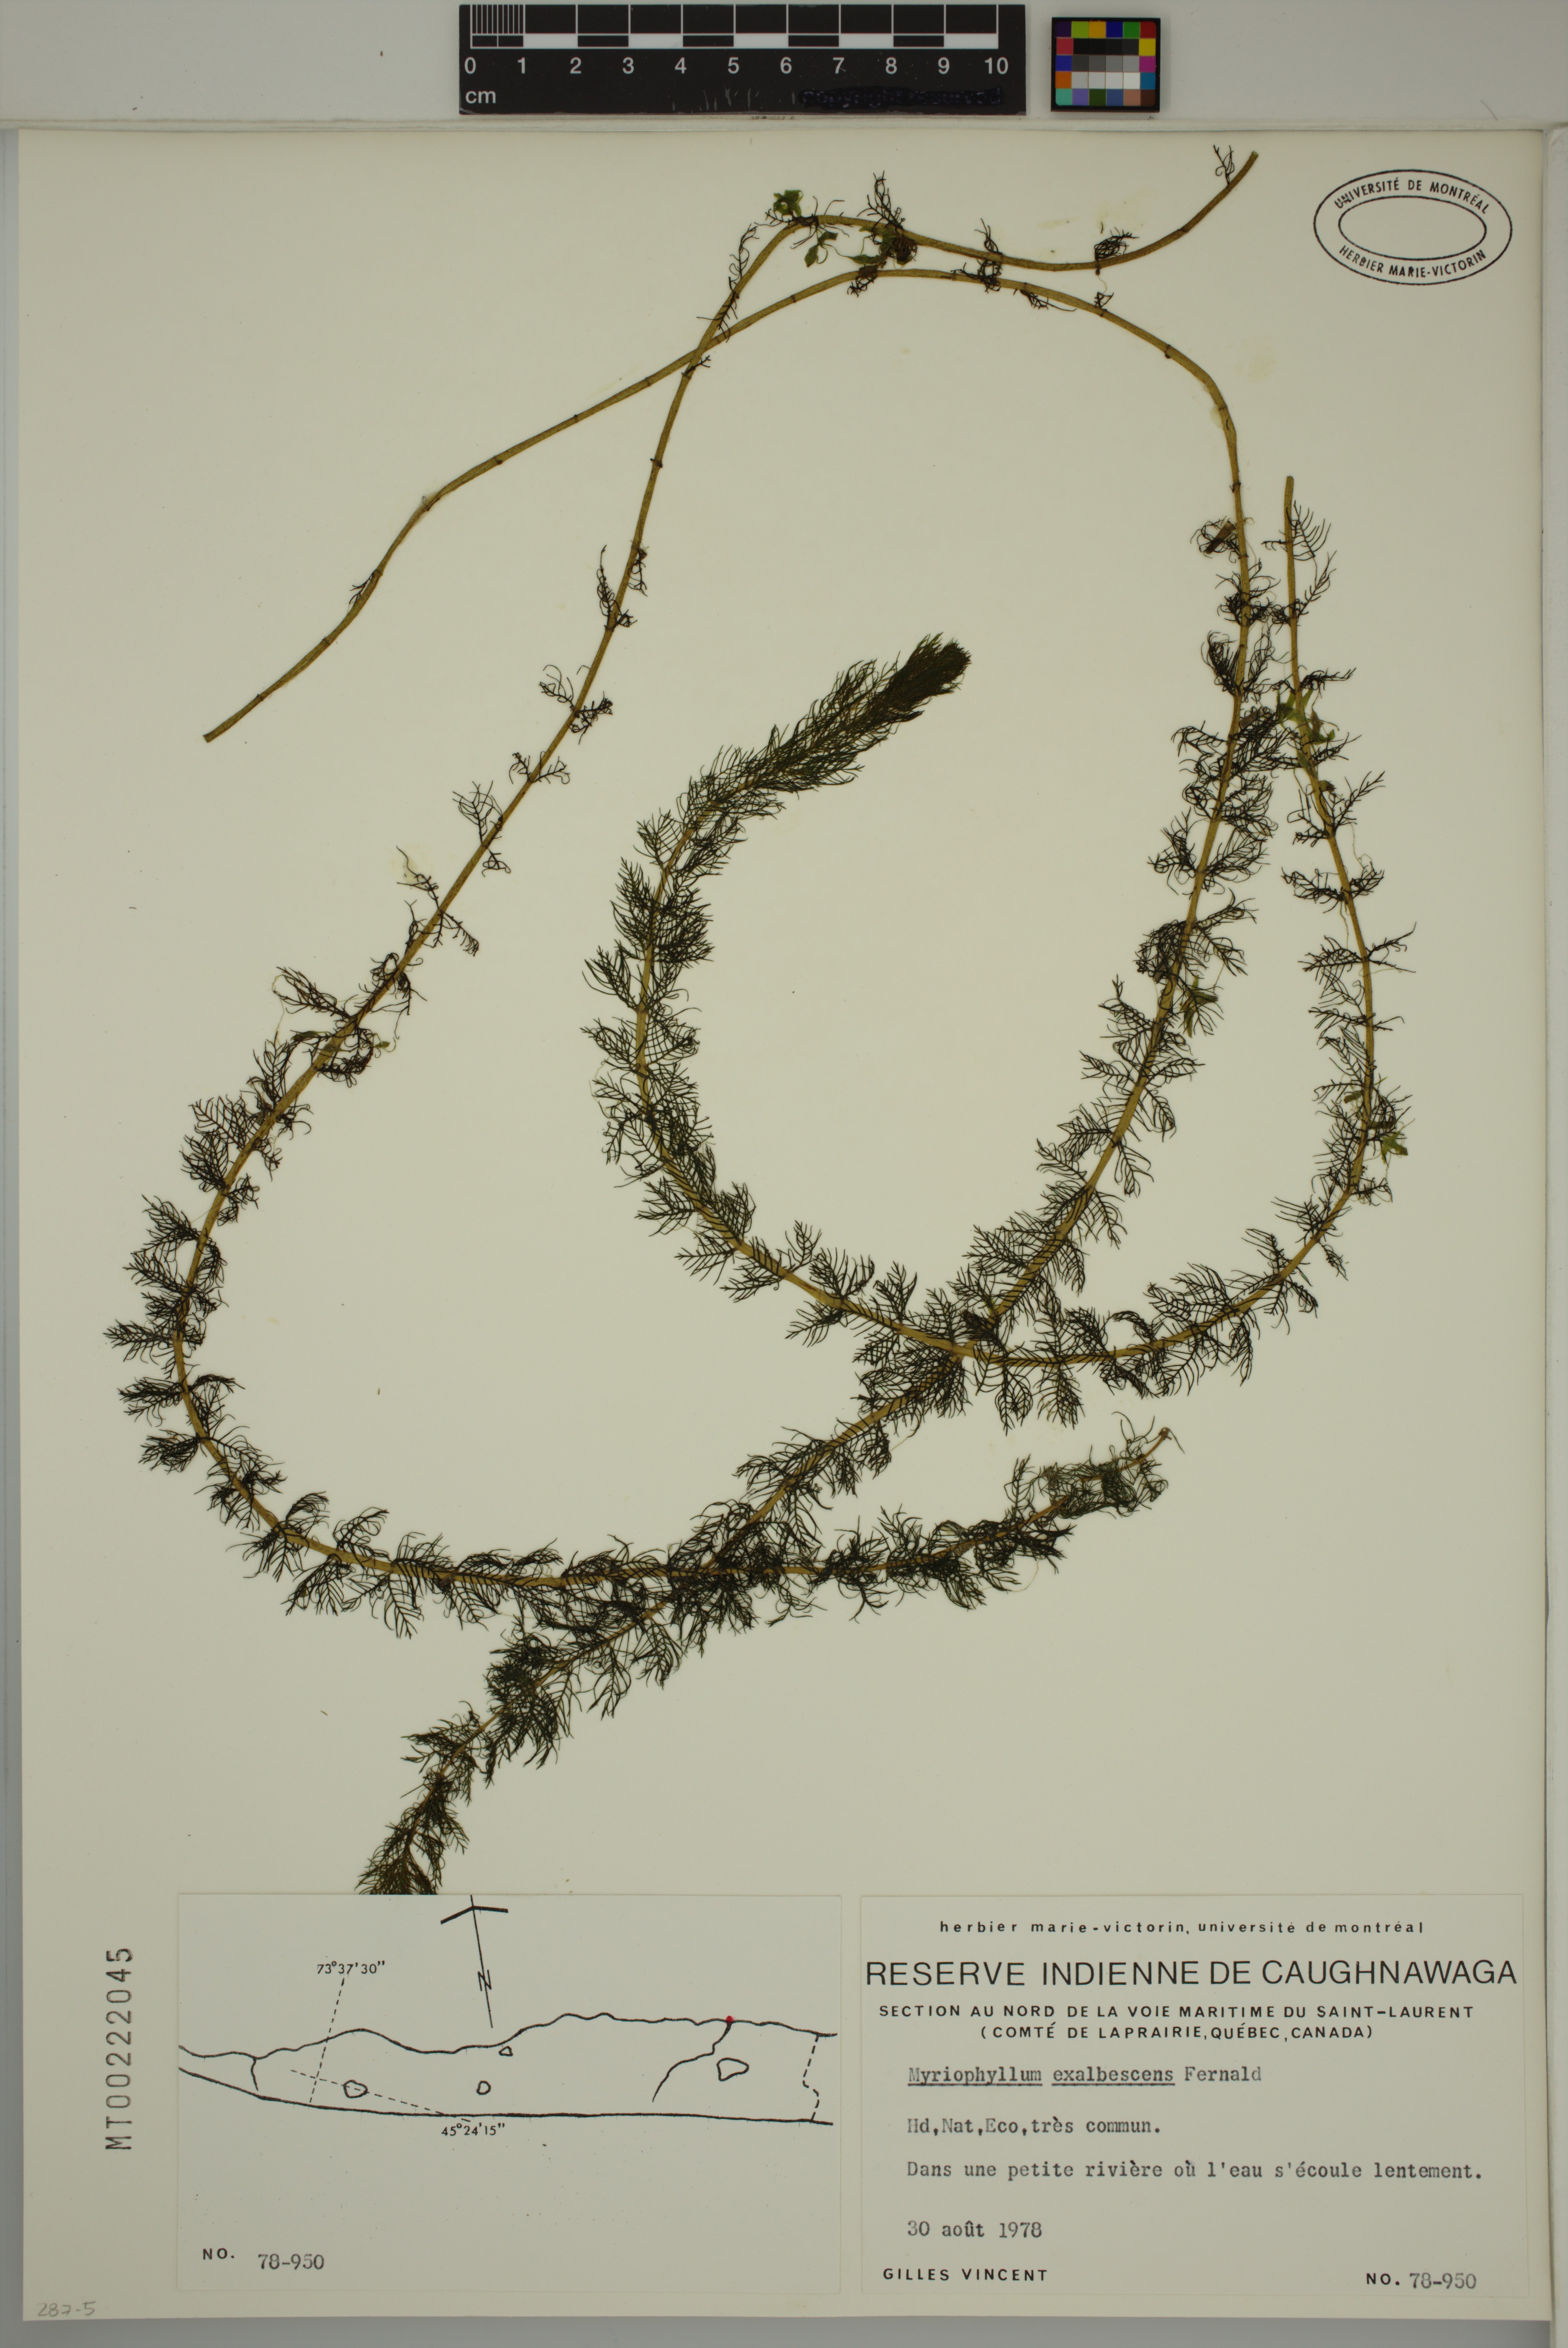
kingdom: Plantae
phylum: Tracheophyta
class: Magnoliopsida
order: Saxifragales
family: Haloragaceae
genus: Myriophyllum
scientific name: Myriophyllum sibiricum
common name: Siberian water-milfoil
